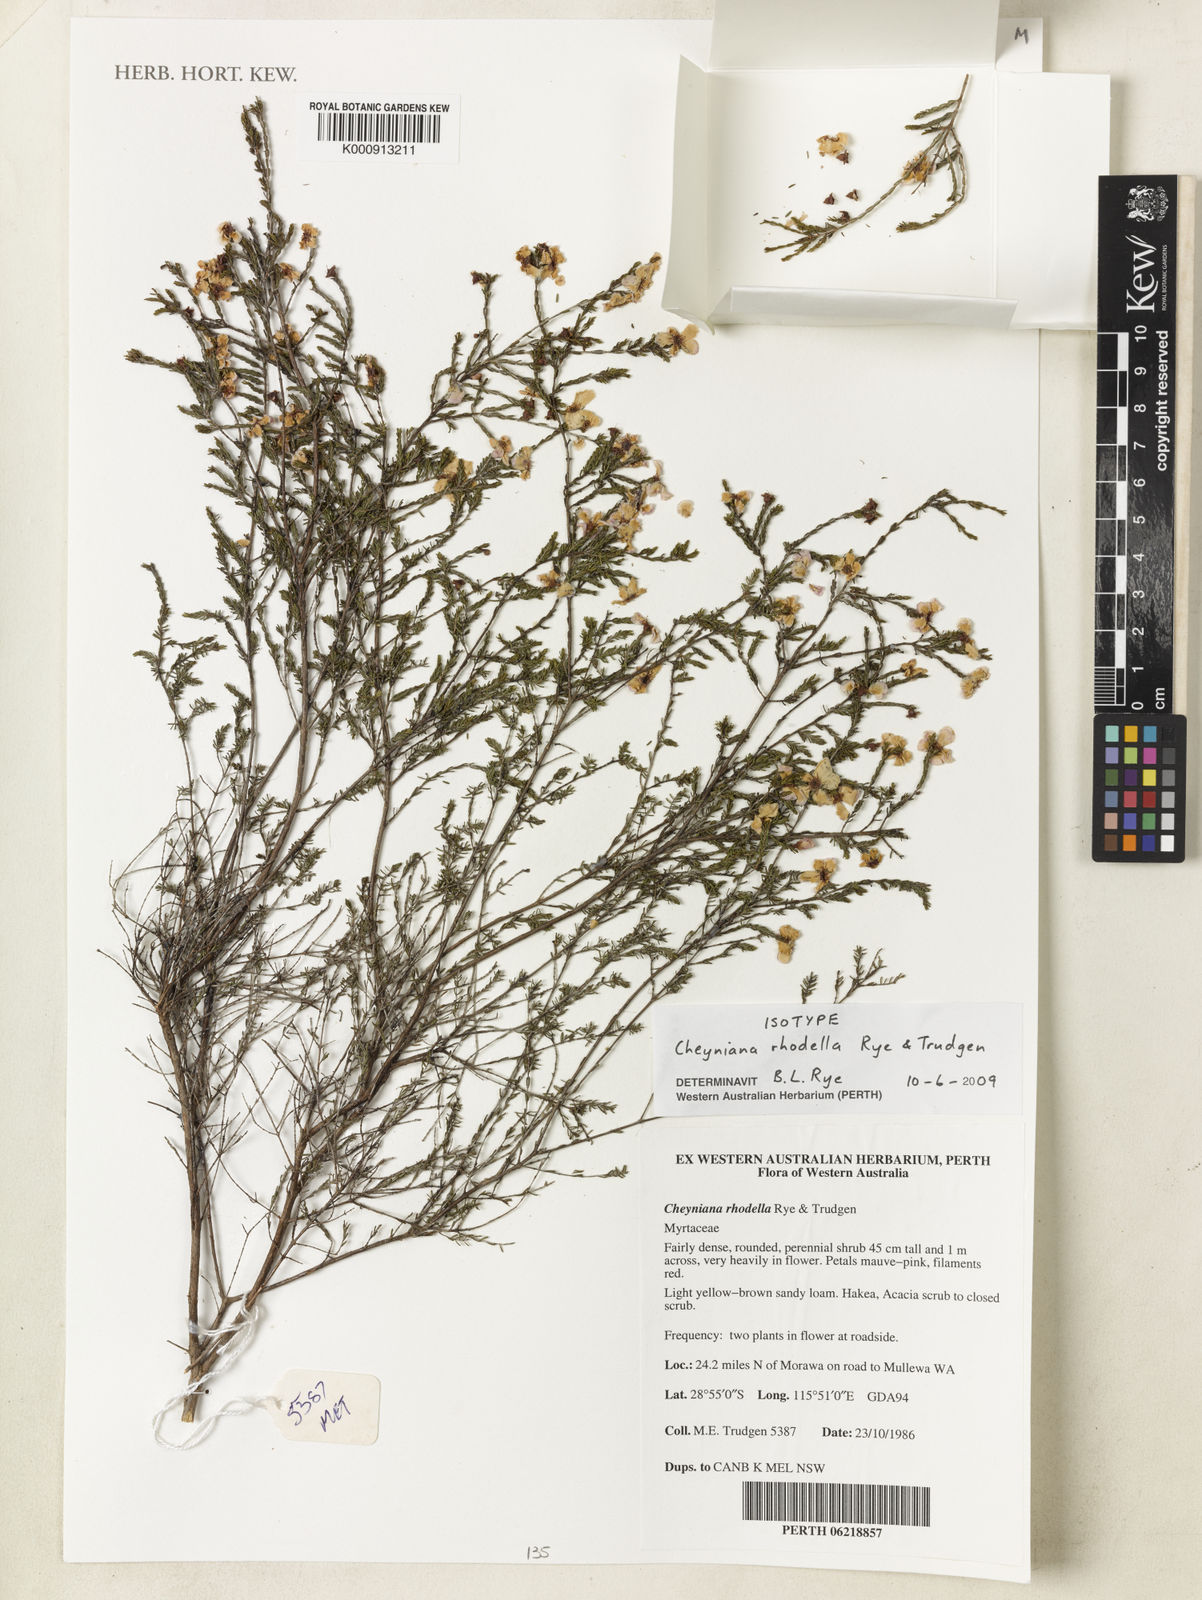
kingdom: Plantae
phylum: Tracheophyta
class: Magnoliopsida
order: Myrtales
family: Myrtaceae
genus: Cheyniana
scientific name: Cheyniana rhodella
